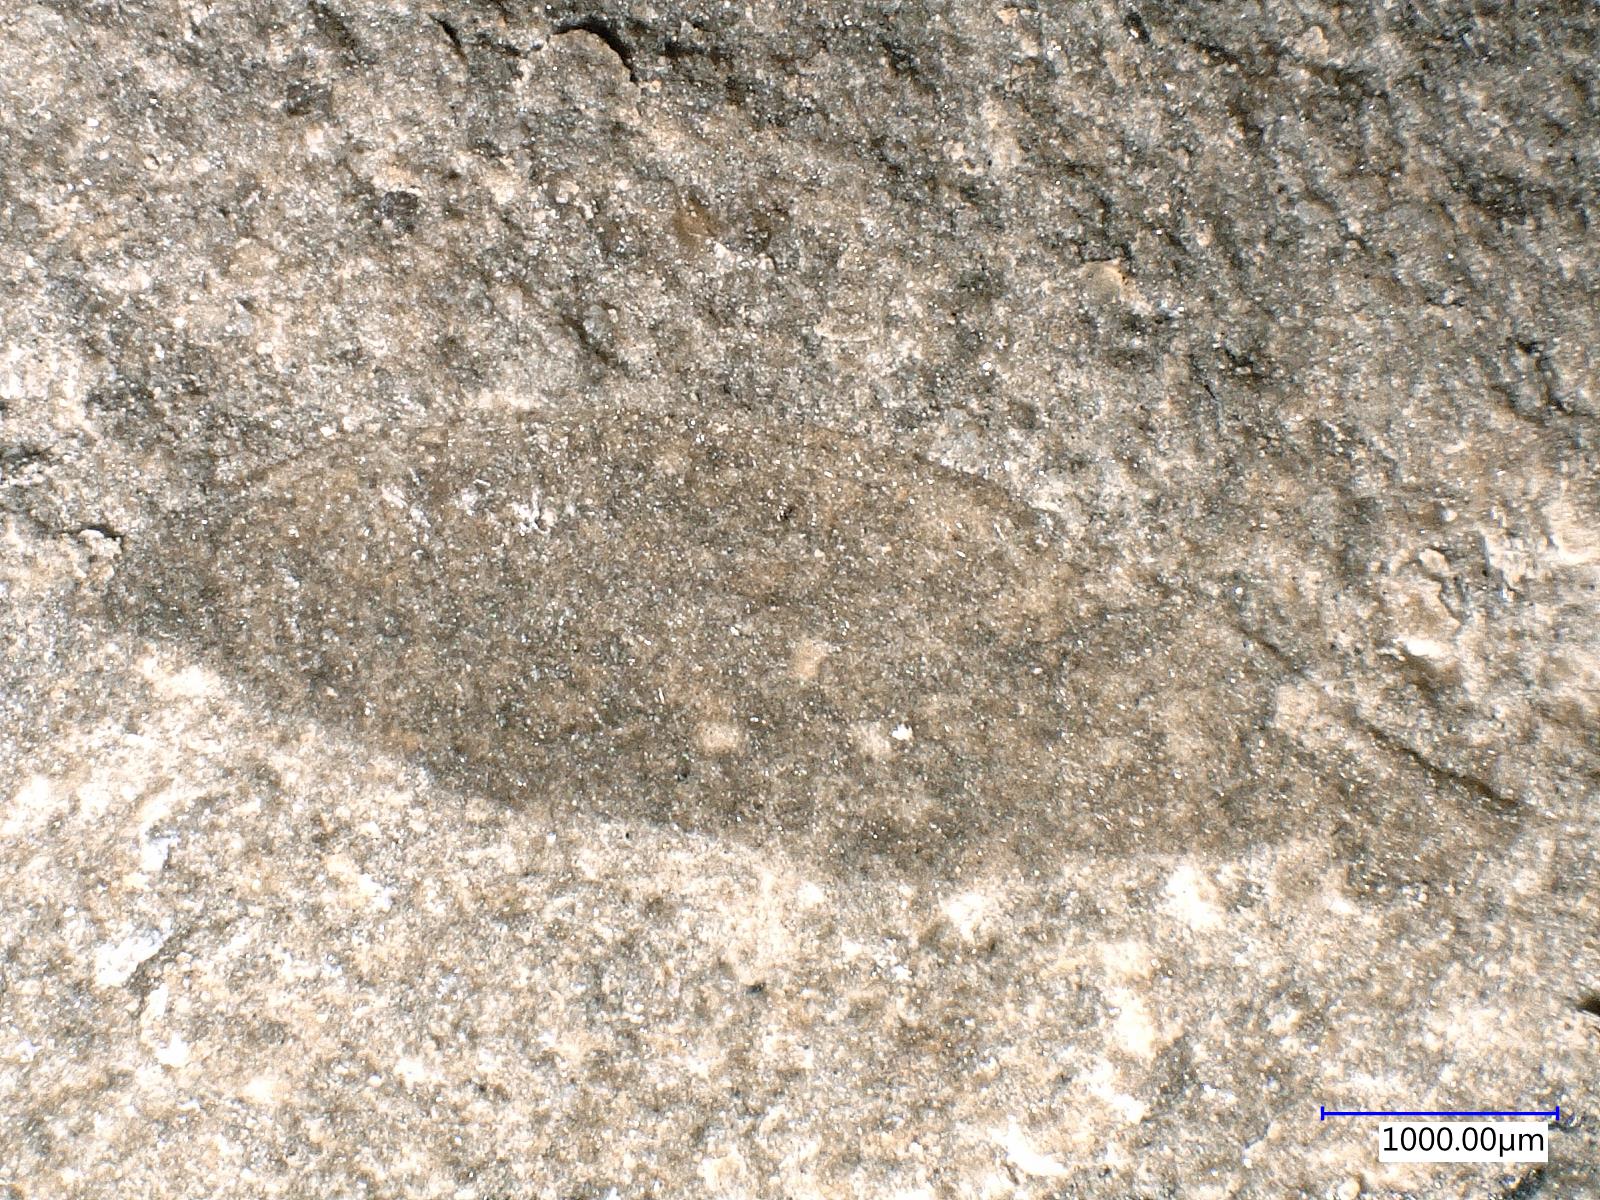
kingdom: Animalia
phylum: Arthropoda
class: Insecta
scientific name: Insecta
